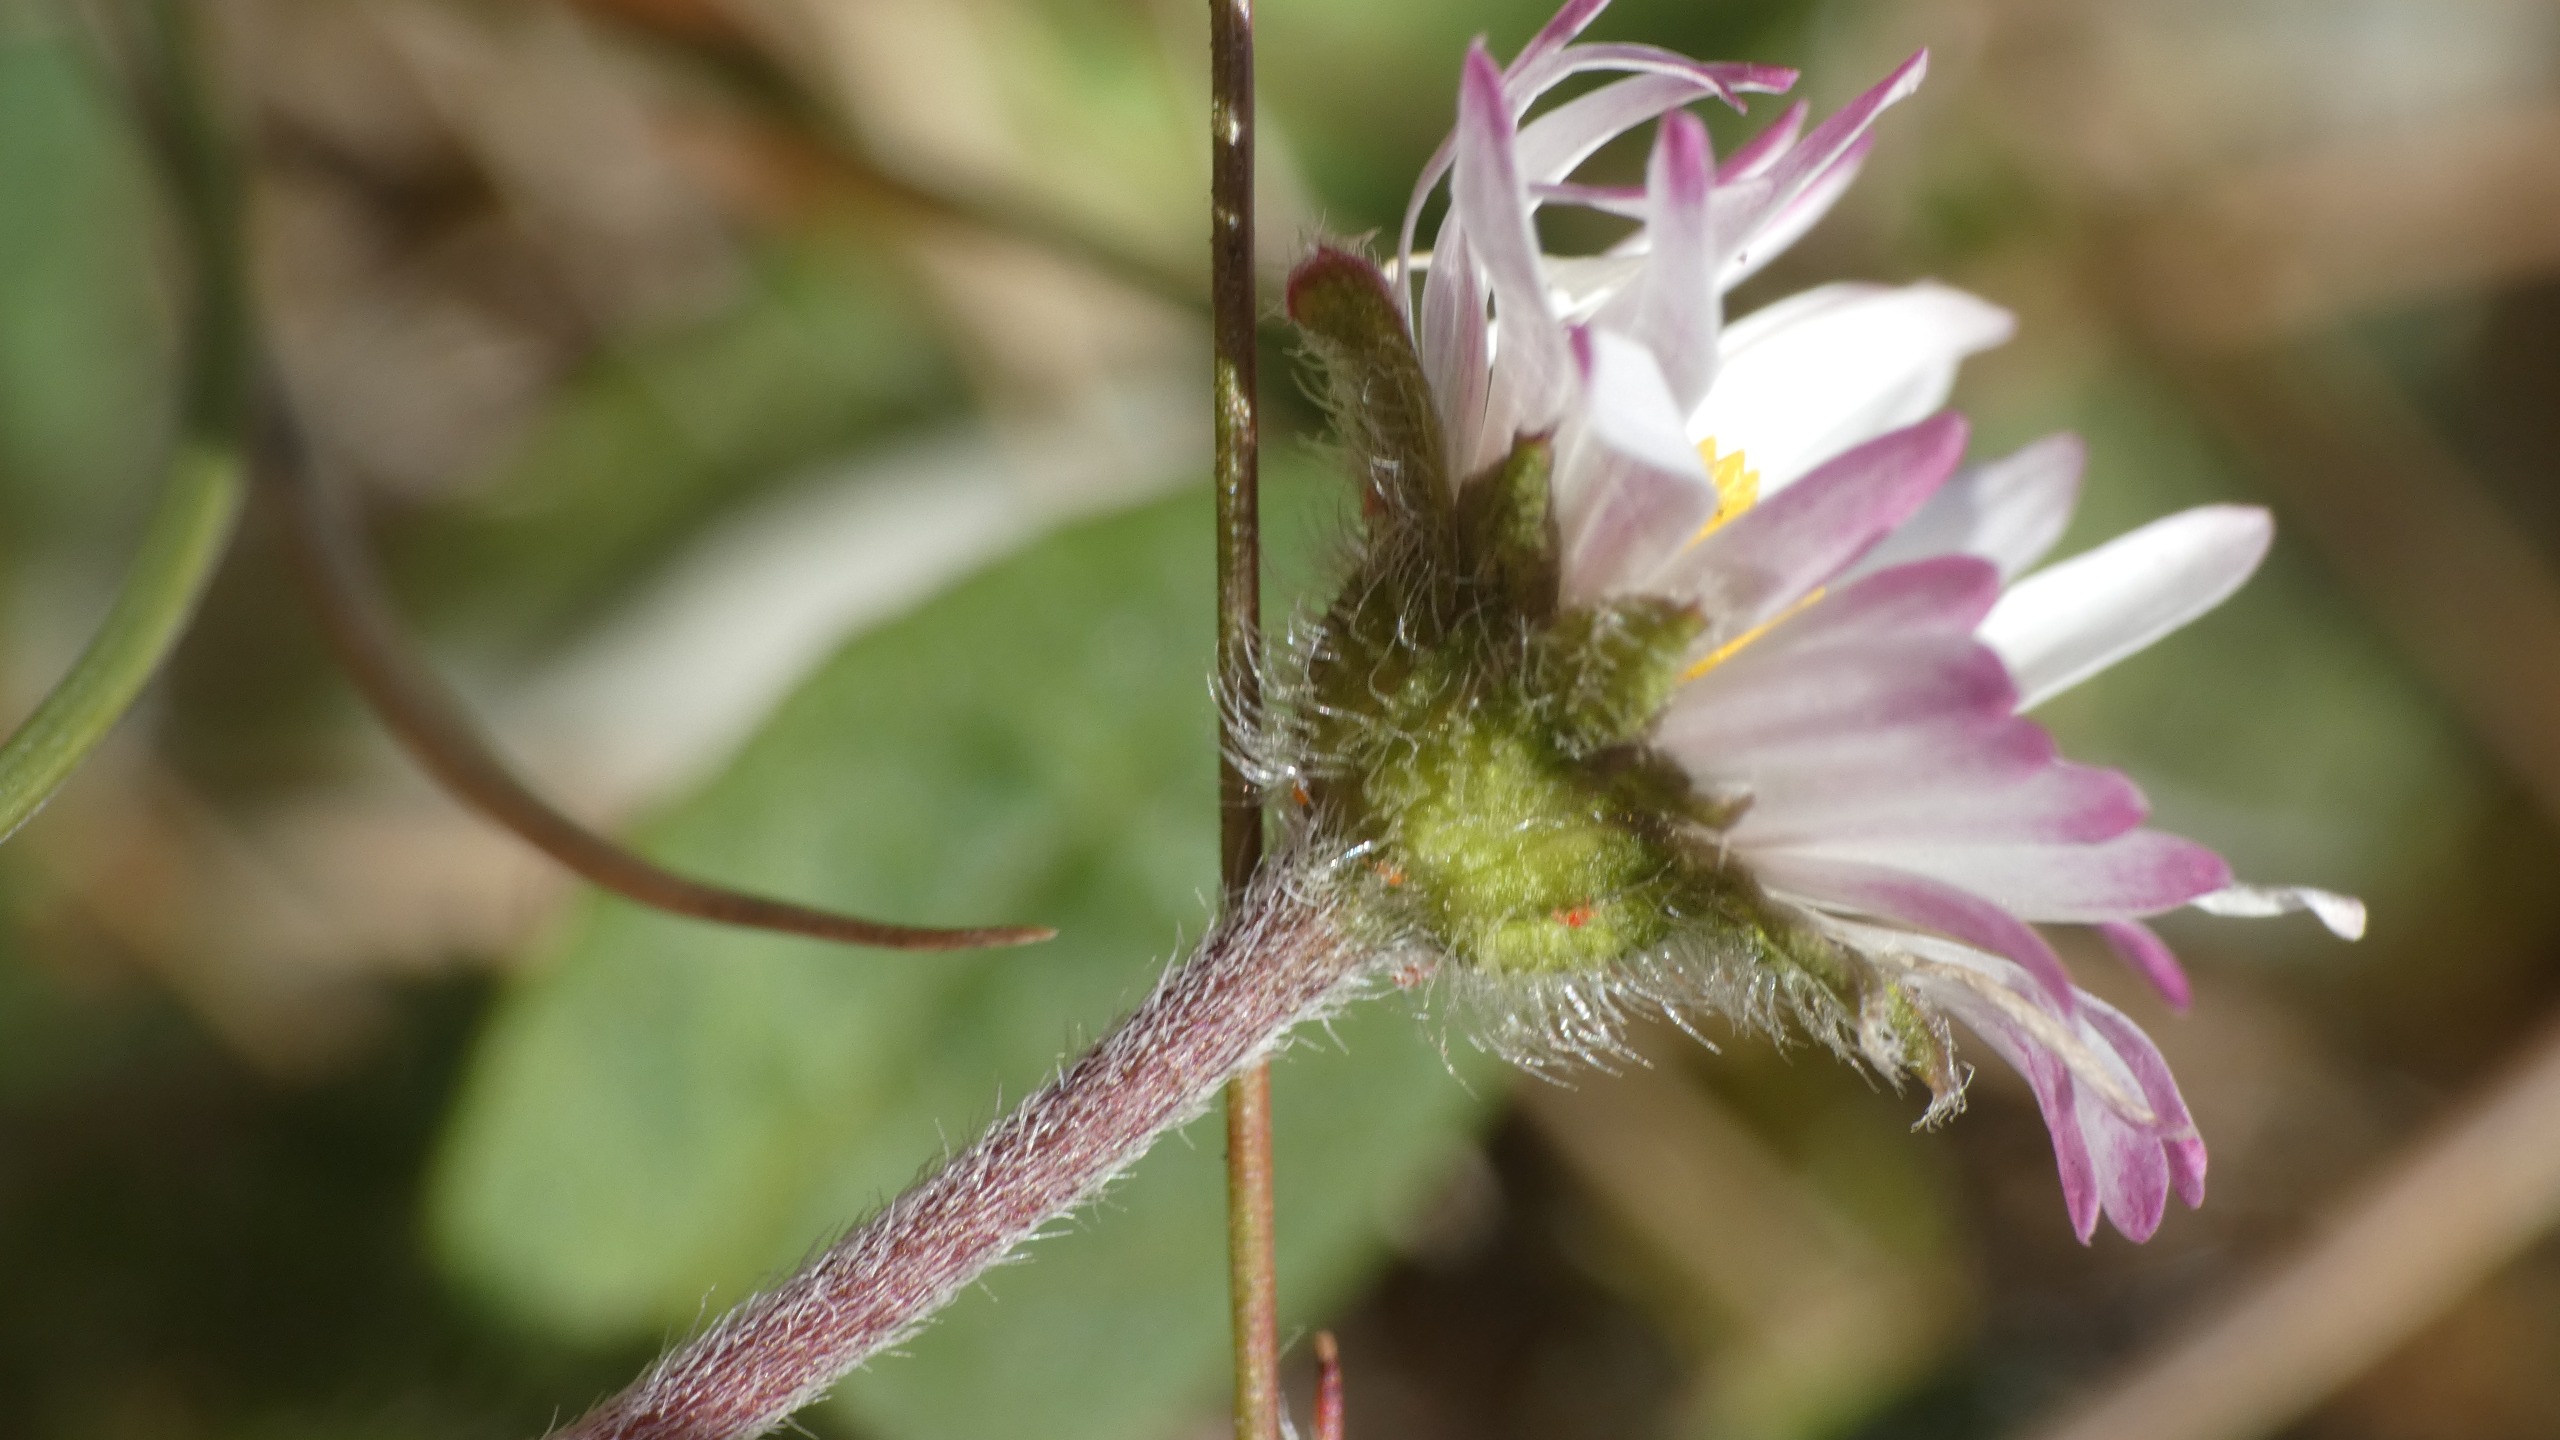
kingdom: Plantae
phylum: Tracheophyta
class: Magnoliopsida
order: Asterales
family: Asteraceae
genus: Bellis
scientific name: Bellis perennis
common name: Tusindfryd
